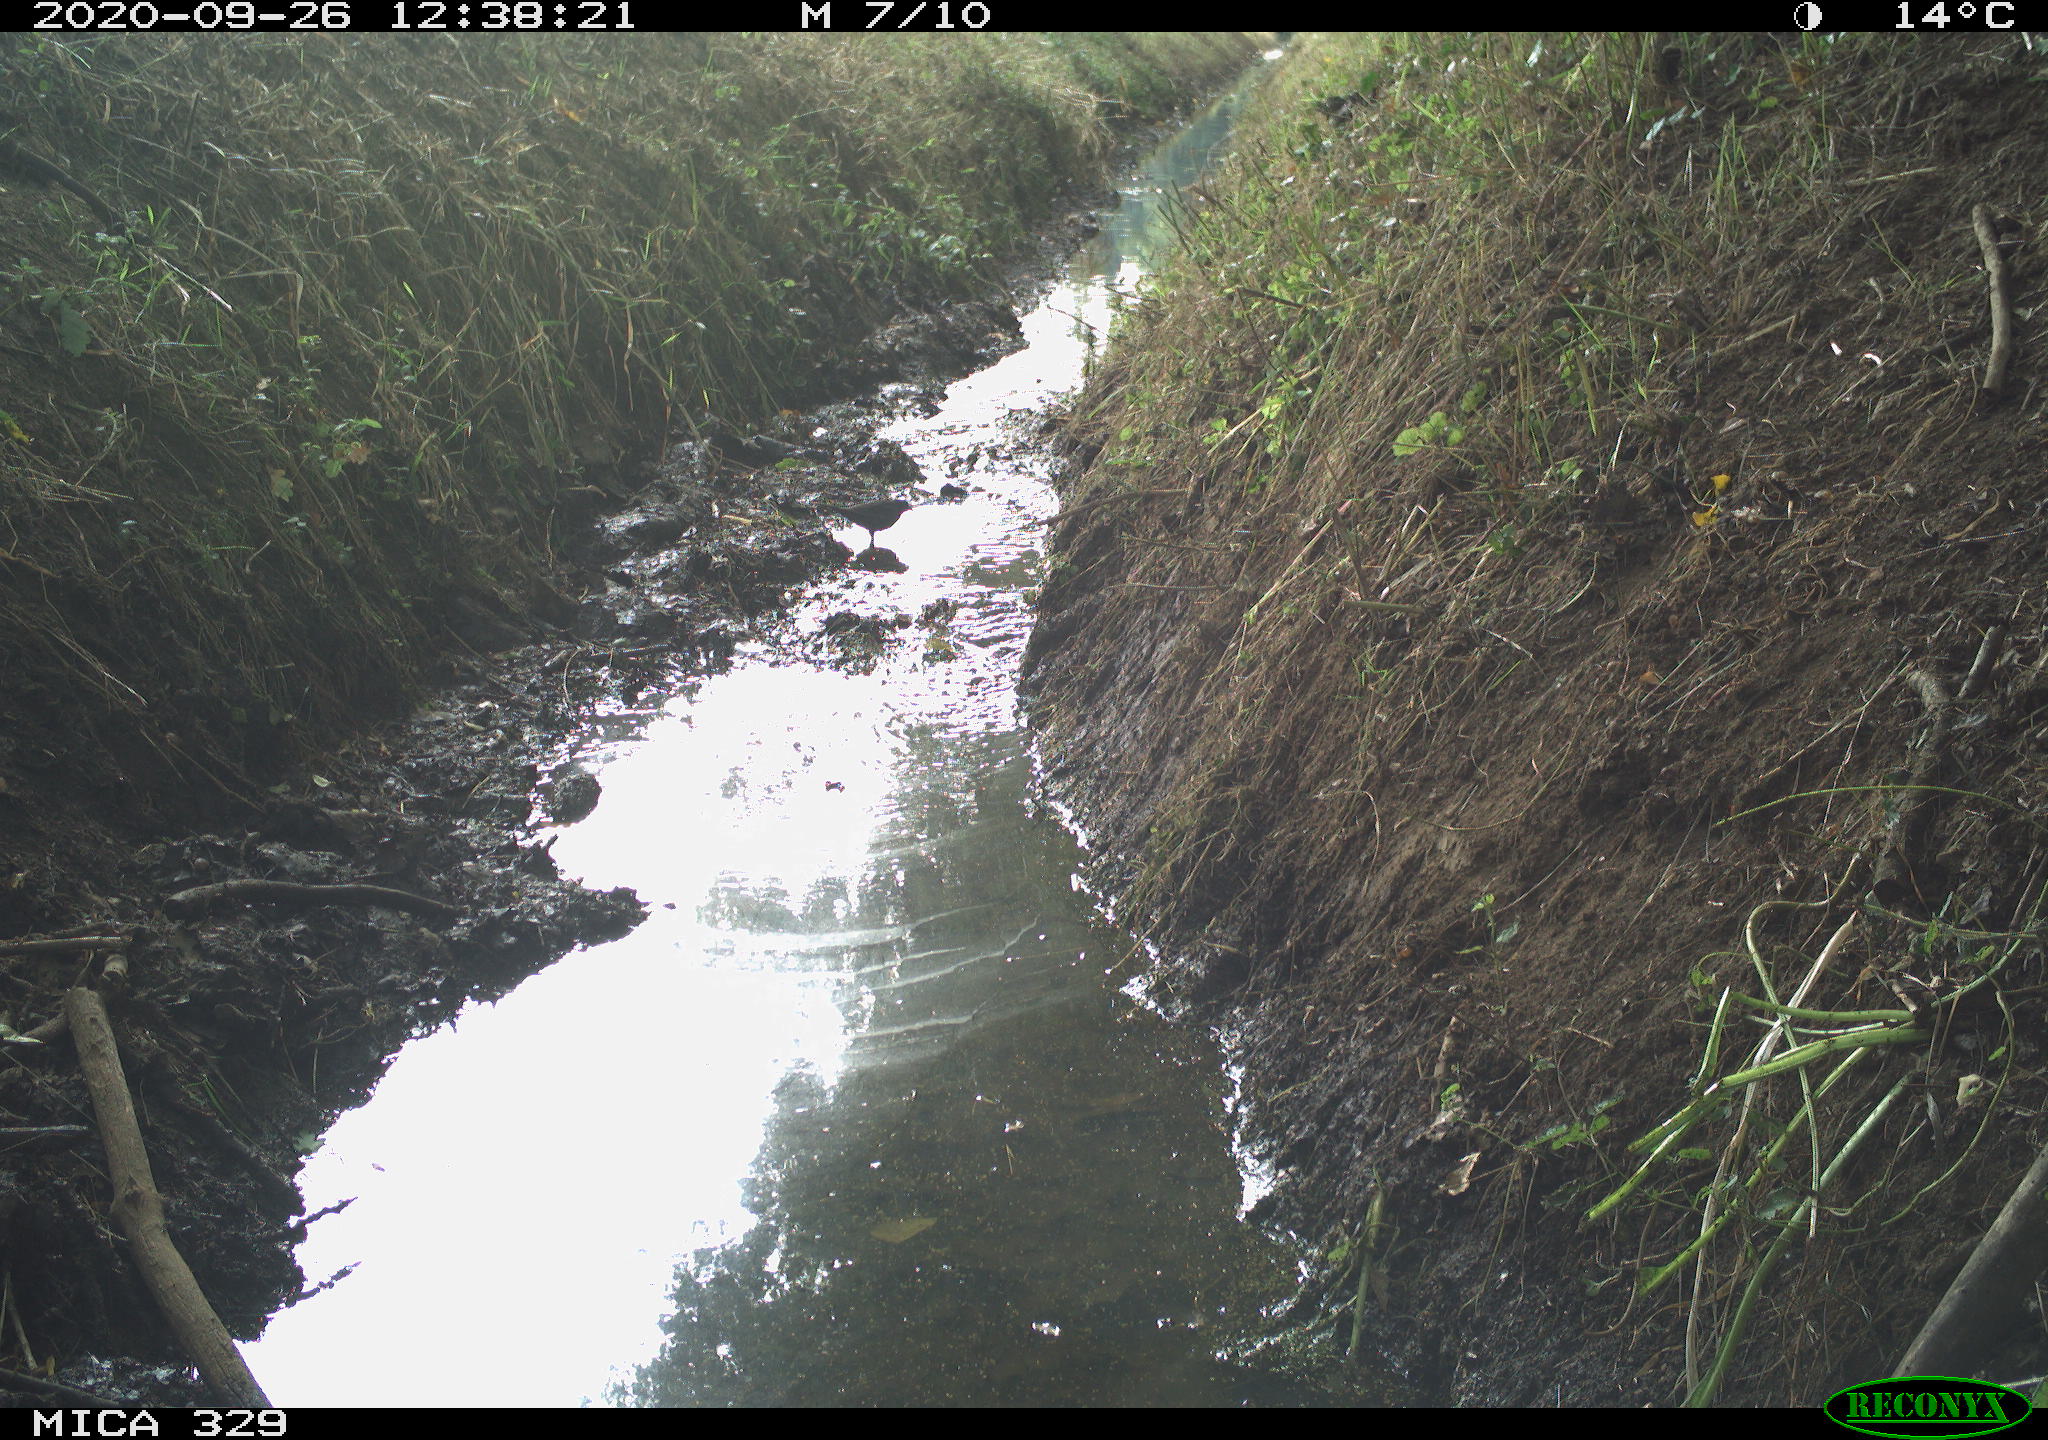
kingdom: Animalia
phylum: Chordata
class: Aves
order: Columbiformes
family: Columbidae
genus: Columba
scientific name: Columba palumbus
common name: Common wood pigeon
